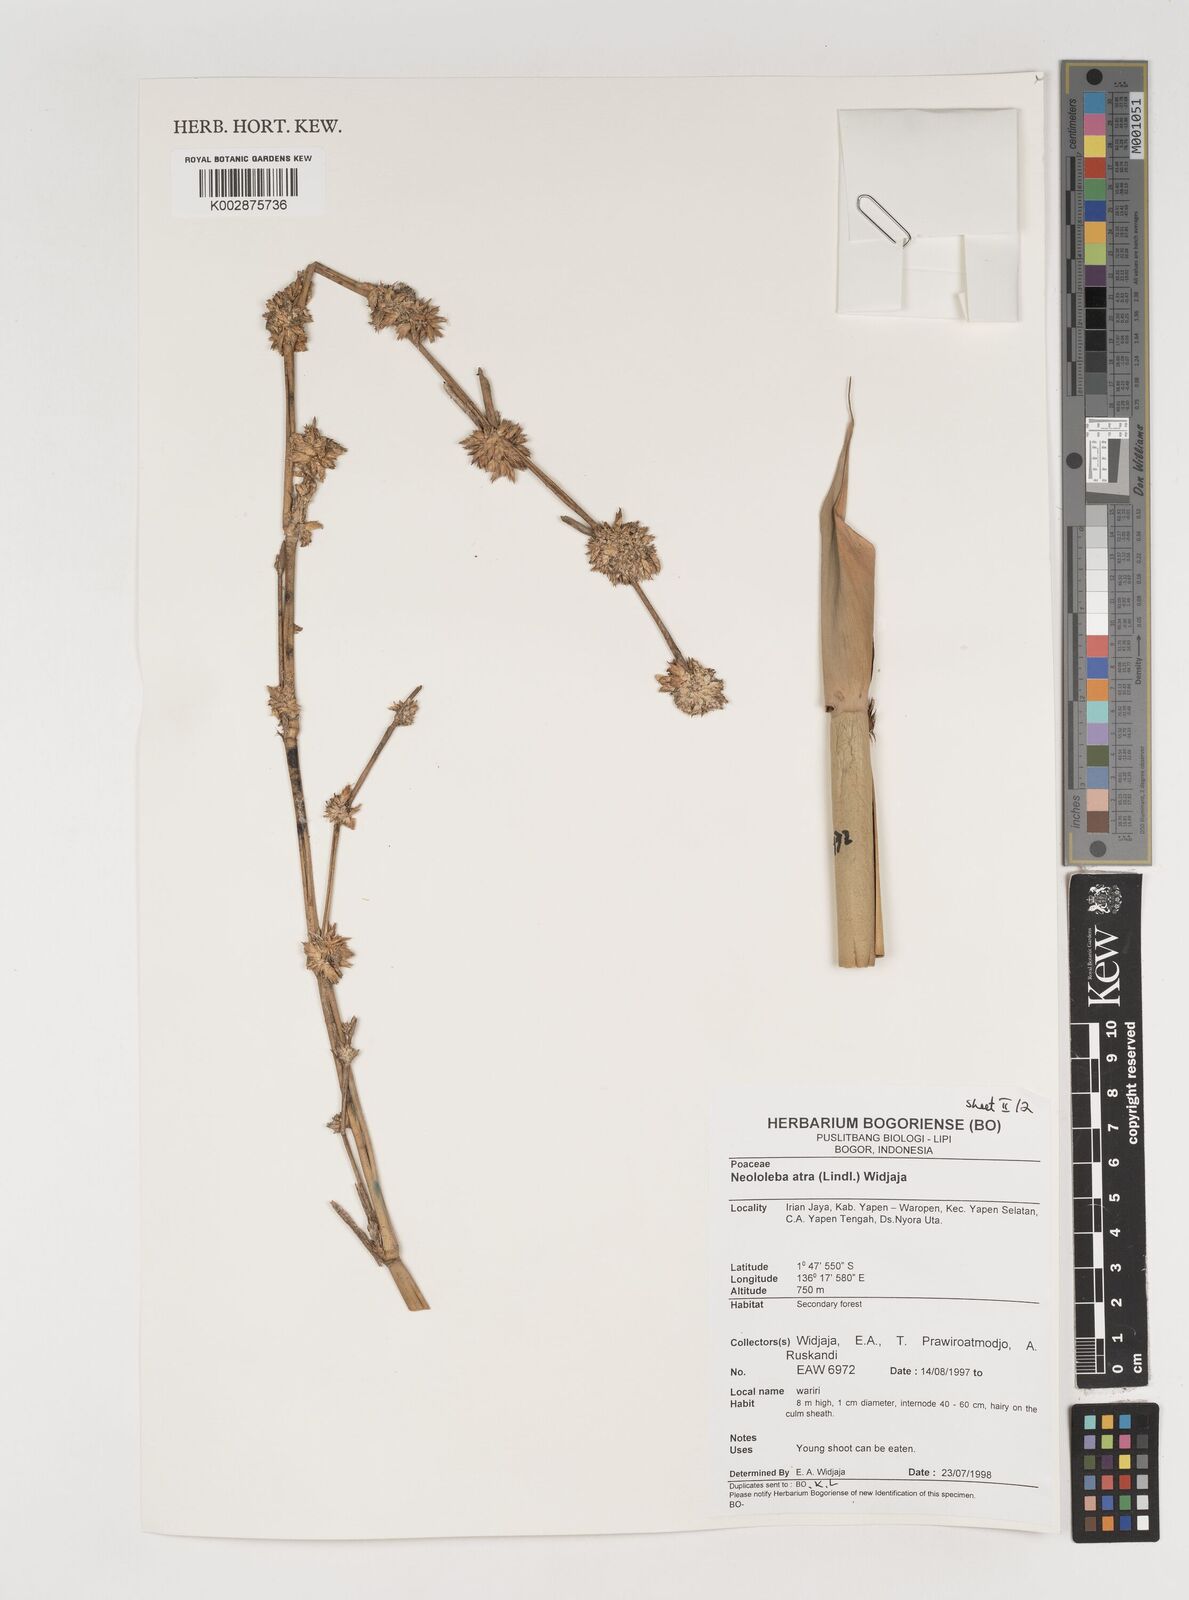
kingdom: Plantae
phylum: Tracheophyta
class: Liliopsida
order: Poales
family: Poaceae
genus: Neololeba
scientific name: Neololeba atra
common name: Cape bamboo
